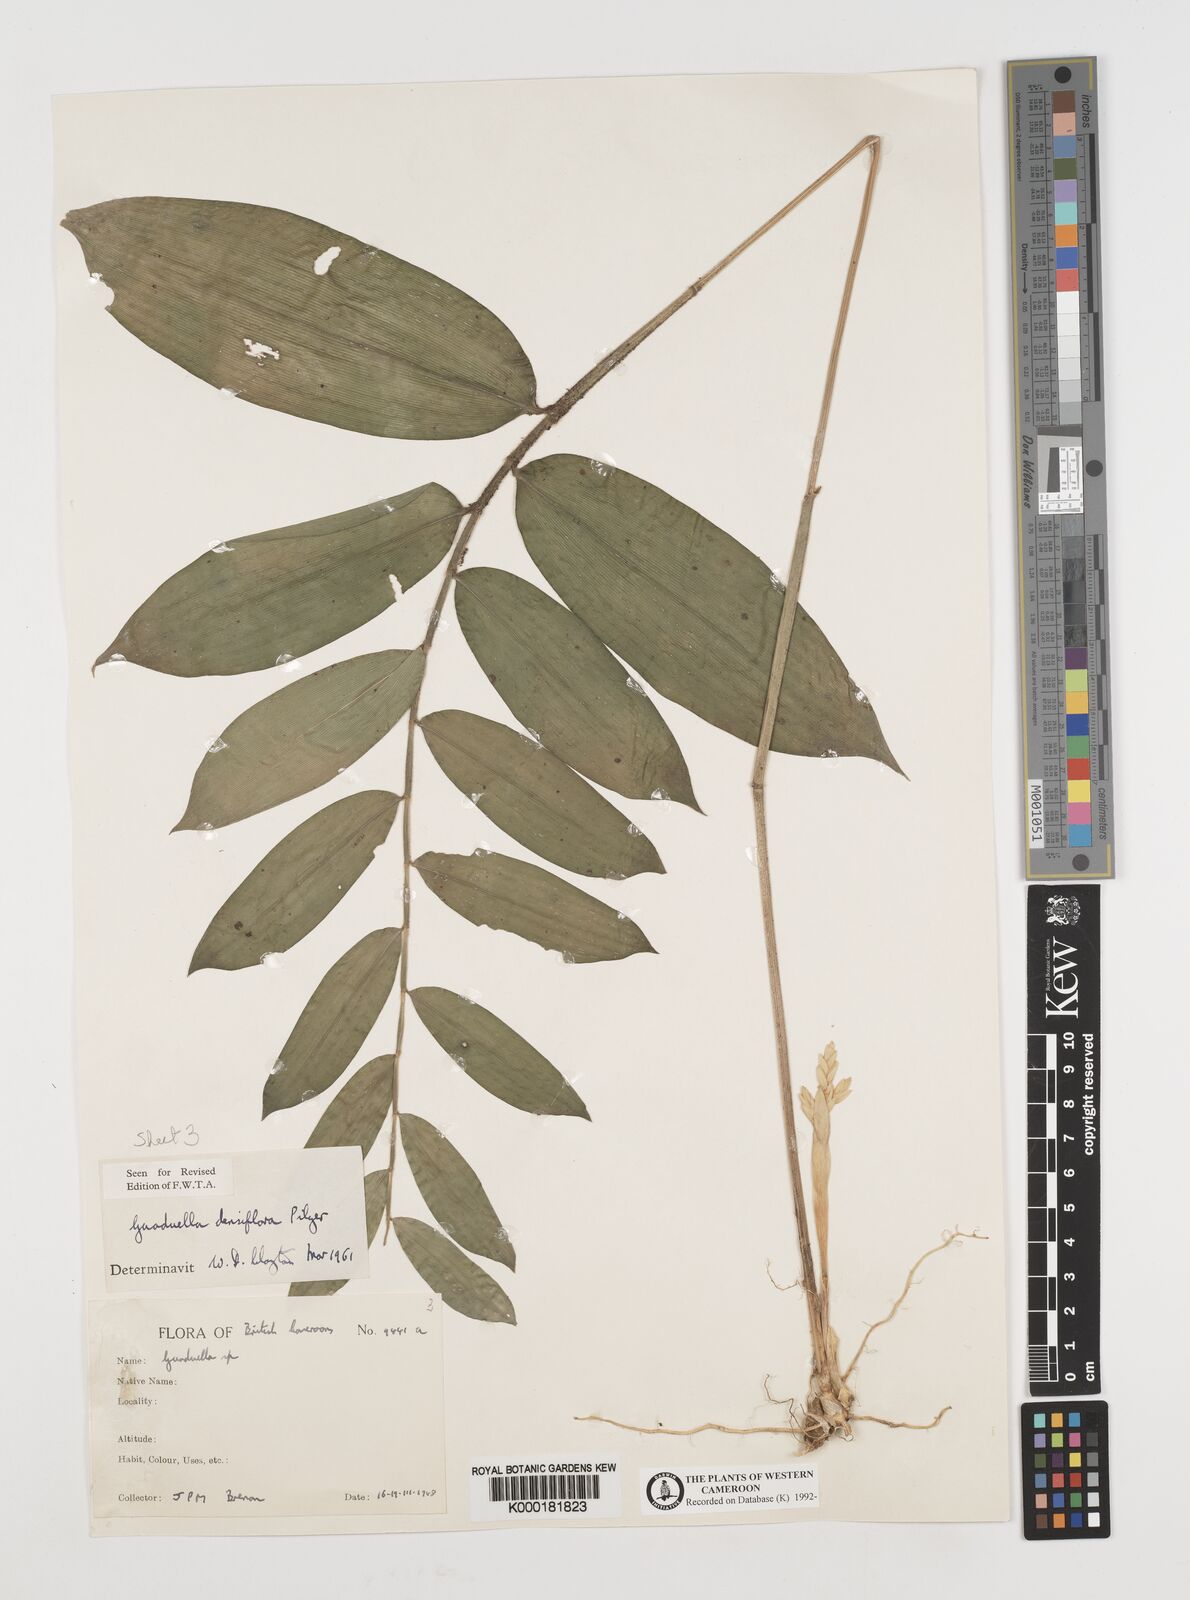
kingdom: Plantae
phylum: Tracheophyta
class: Liliopsida
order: Poales
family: Poaceae
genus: Guaduella
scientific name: Guaduella densiflora
